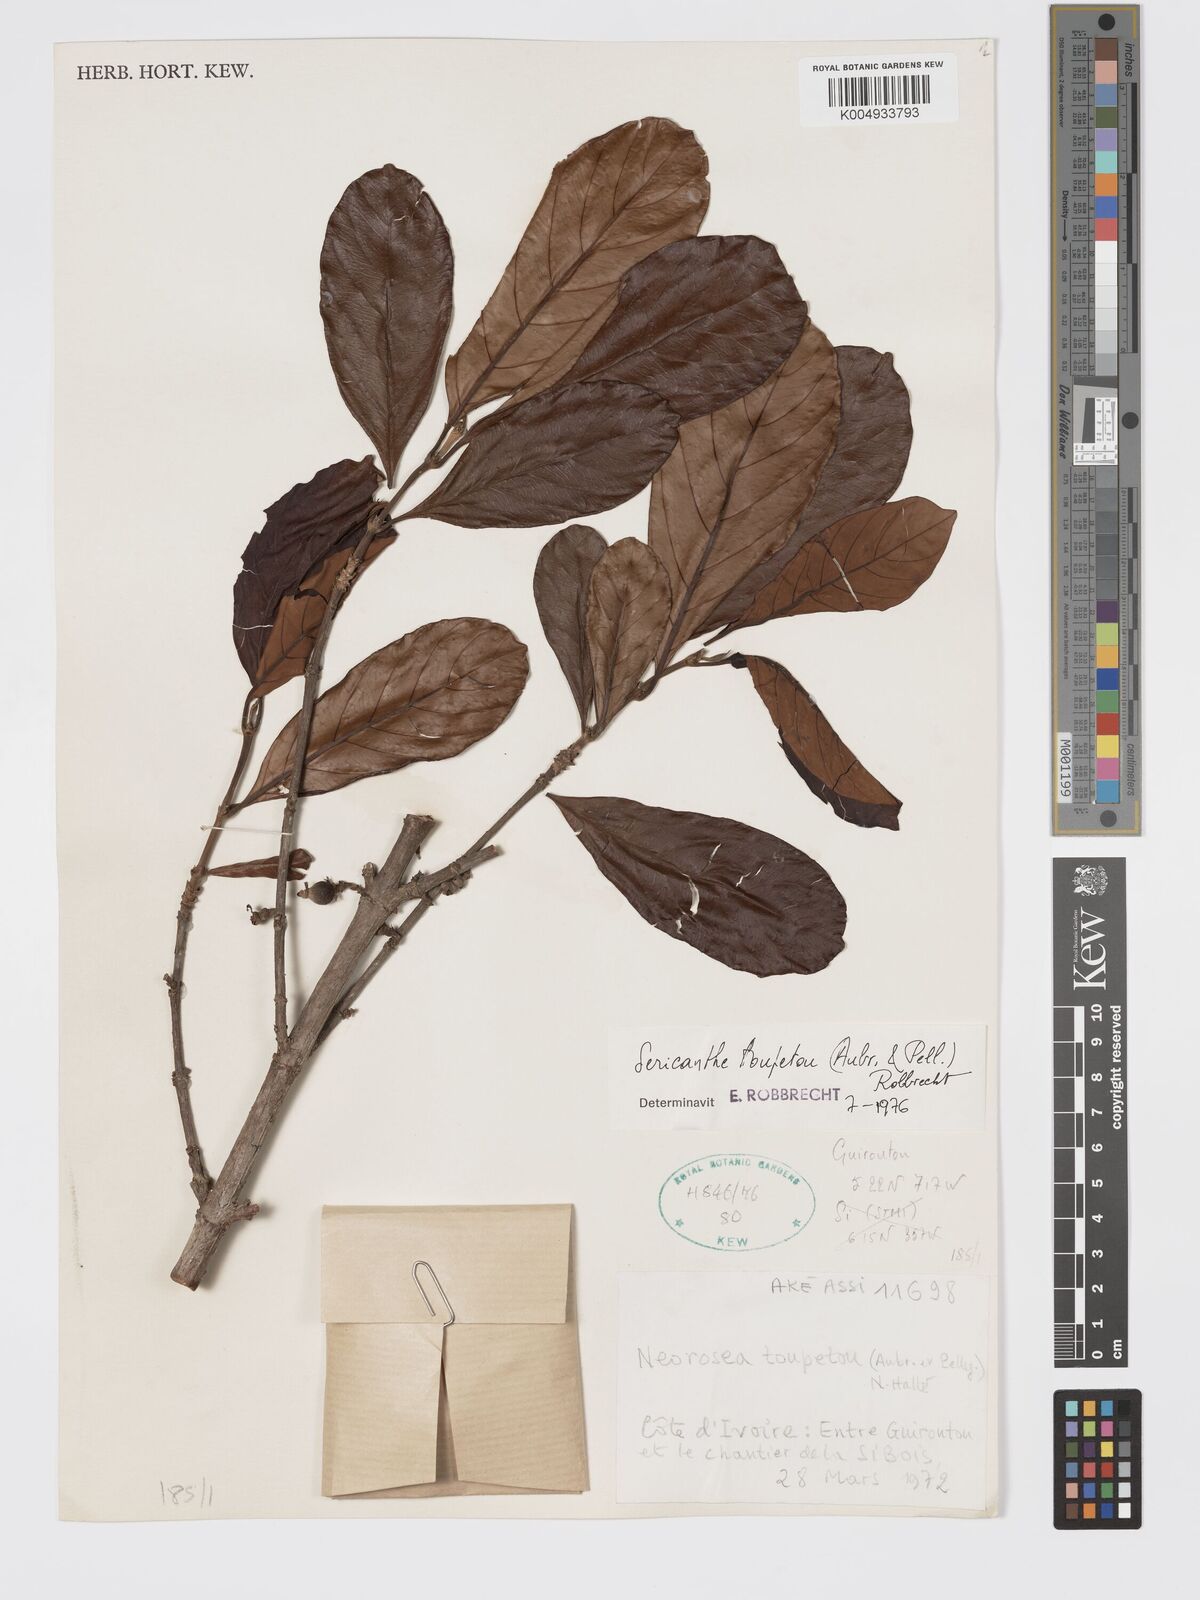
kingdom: Plantae
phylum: Tracheophyta
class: Magnoliopsida
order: Gentianales
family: Rubiaceae
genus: Sericanthe
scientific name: Sericanthe toupetou
